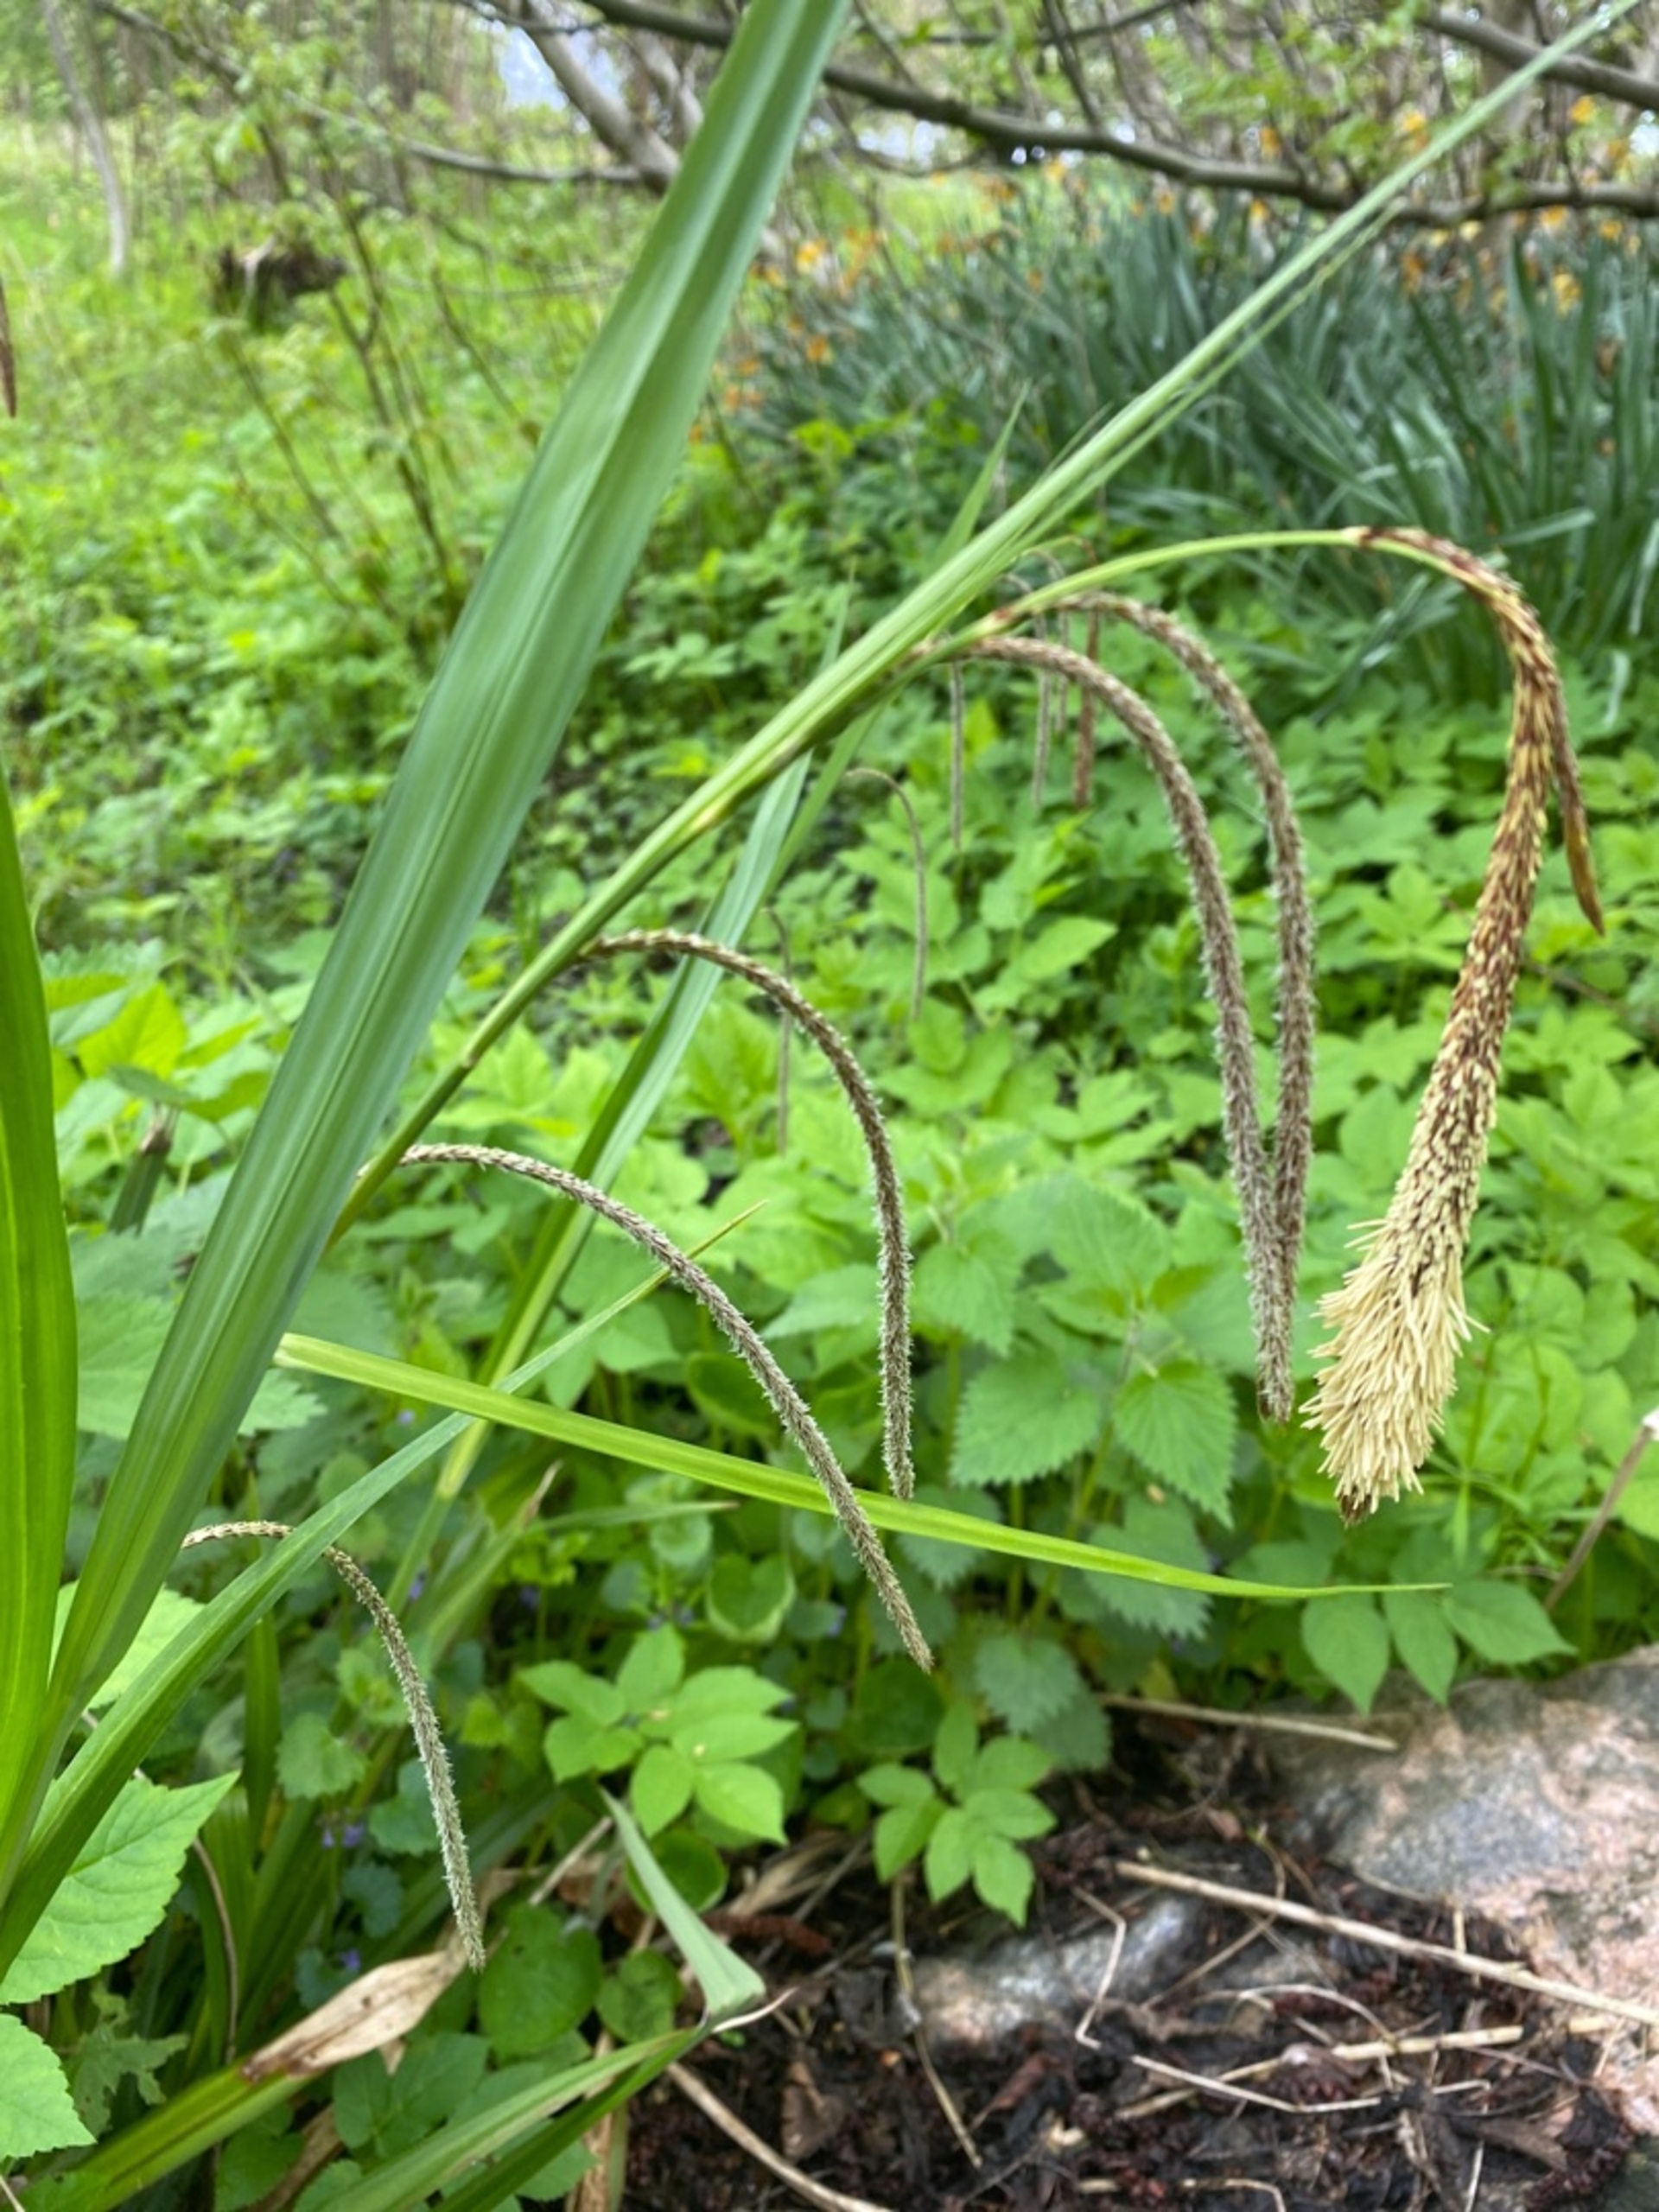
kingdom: Plantae
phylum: Tracheophyta
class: Liliopsida
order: Poales
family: Cyperaceae
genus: Carex
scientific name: Carex pendula
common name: Kæmpe-star
